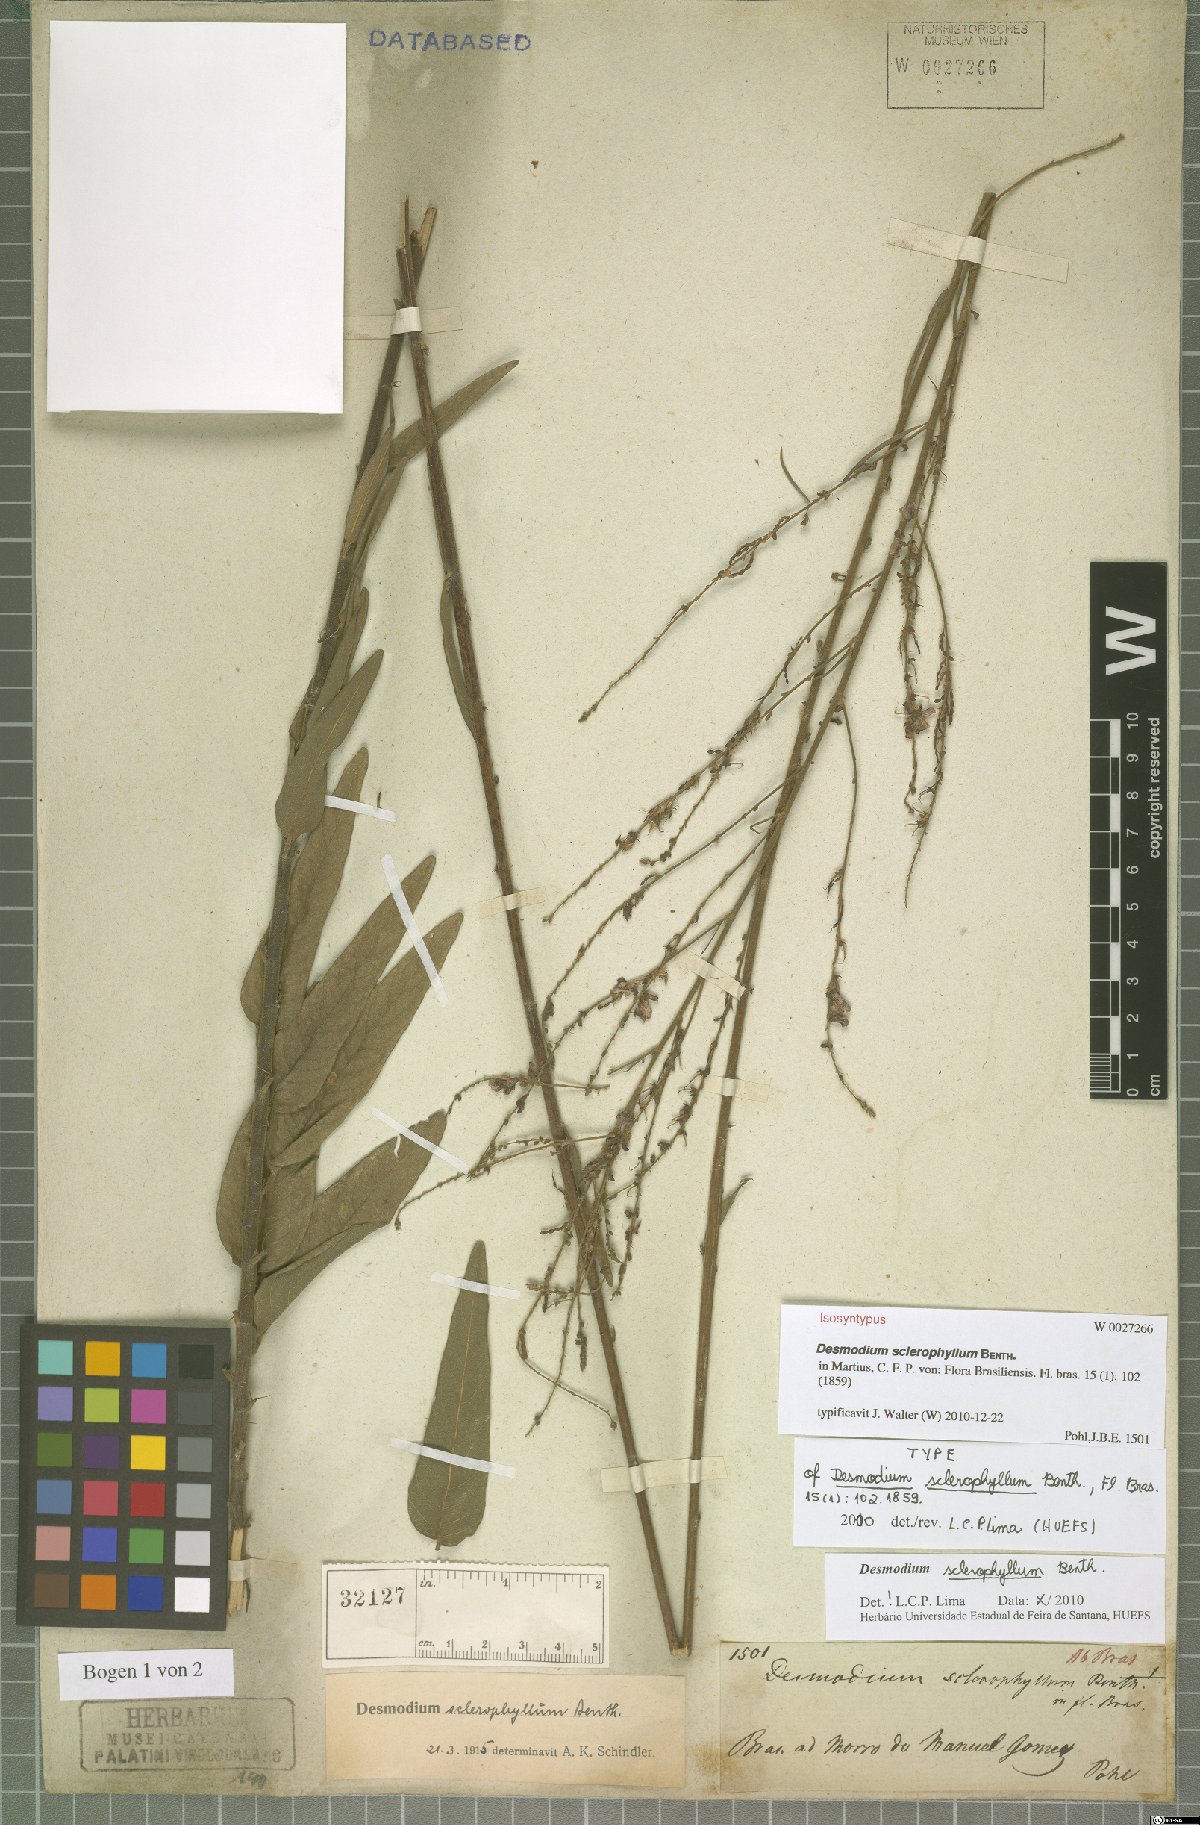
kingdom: Plantae
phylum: Tracheophyta
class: Magnoliopsida
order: Fabales
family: Fabaceae
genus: Desmodium
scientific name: Desmodium sclerophyllum
